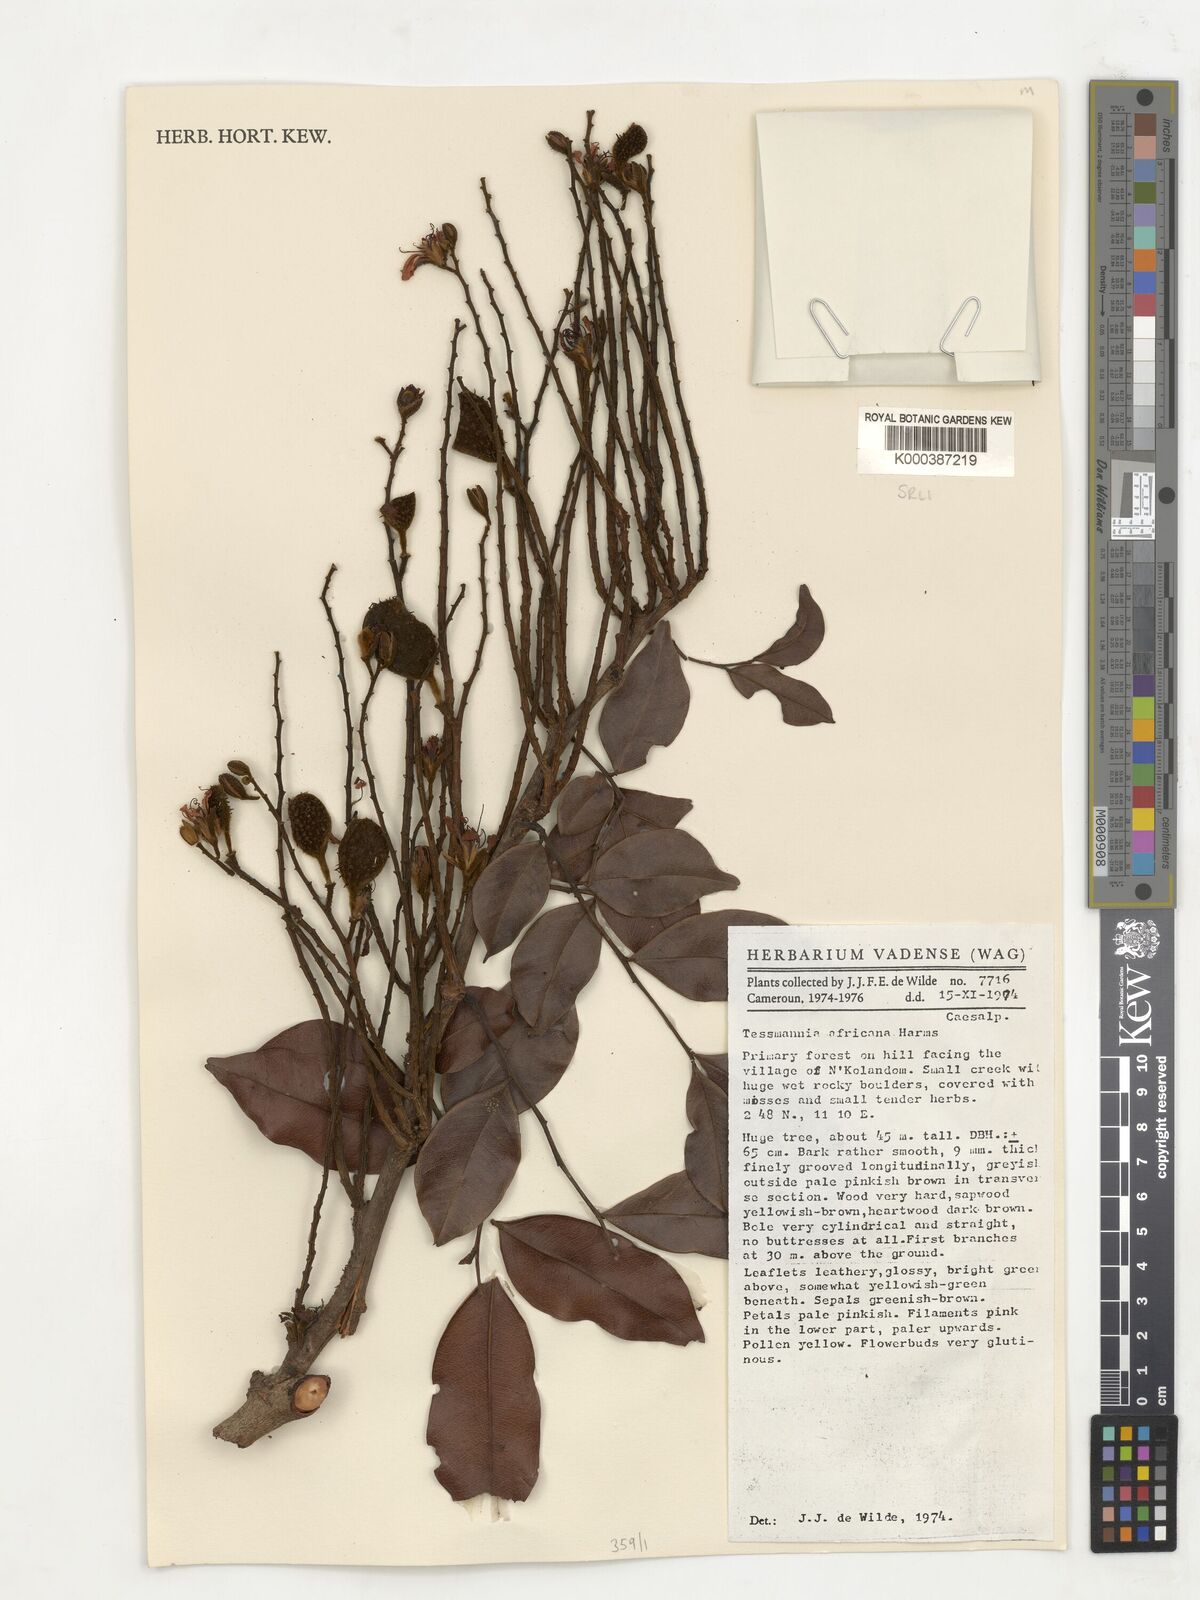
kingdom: Plantae
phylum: Tracheophyta
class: Magnoliopsida
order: Fabales
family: Fabaceae
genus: Tessmannia
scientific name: Tessmannia africana
